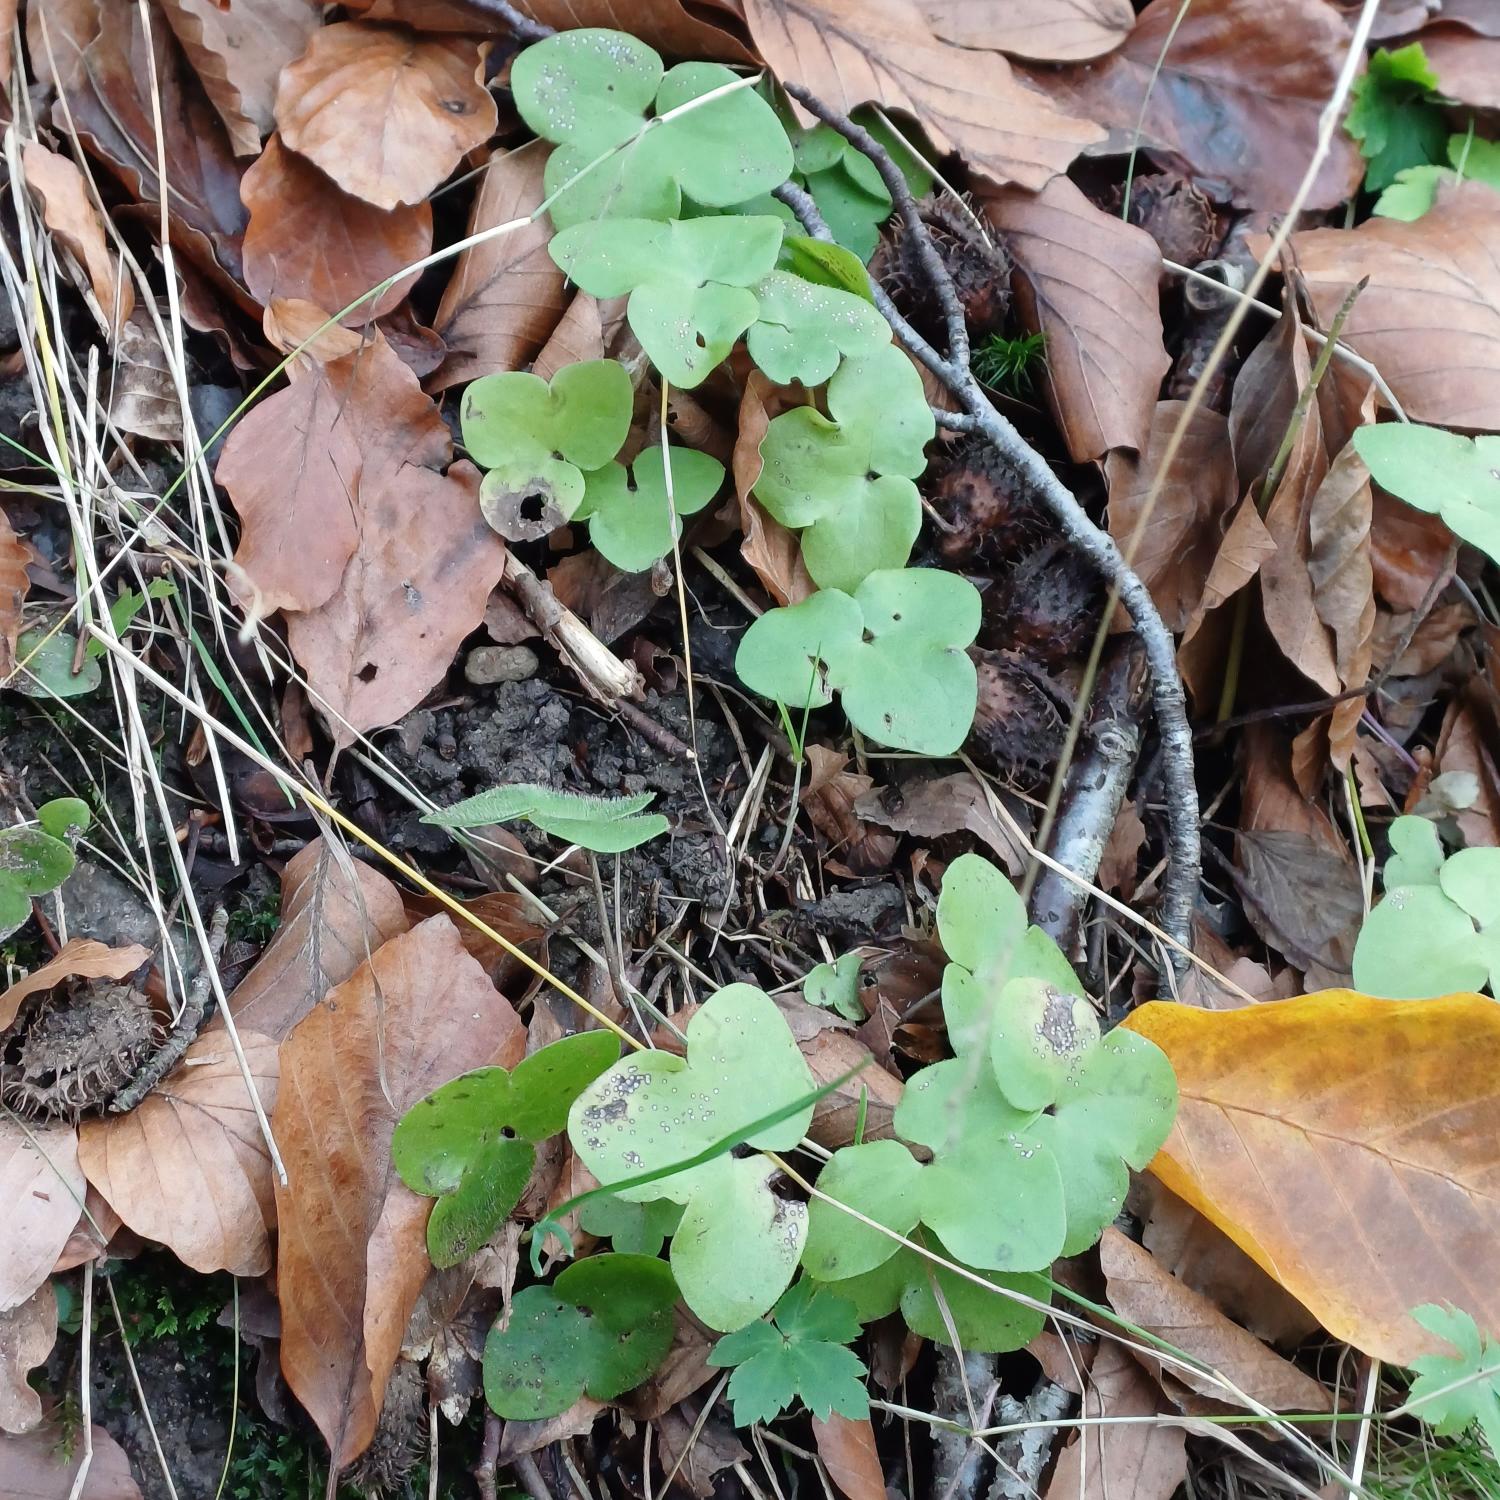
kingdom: Plantae
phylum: Tracheophyta
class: Magnoliopsida
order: Ranunculales
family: Ranunculaceae
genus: Hepatica
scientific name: Hepatica nobilis
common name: Blå anemone
